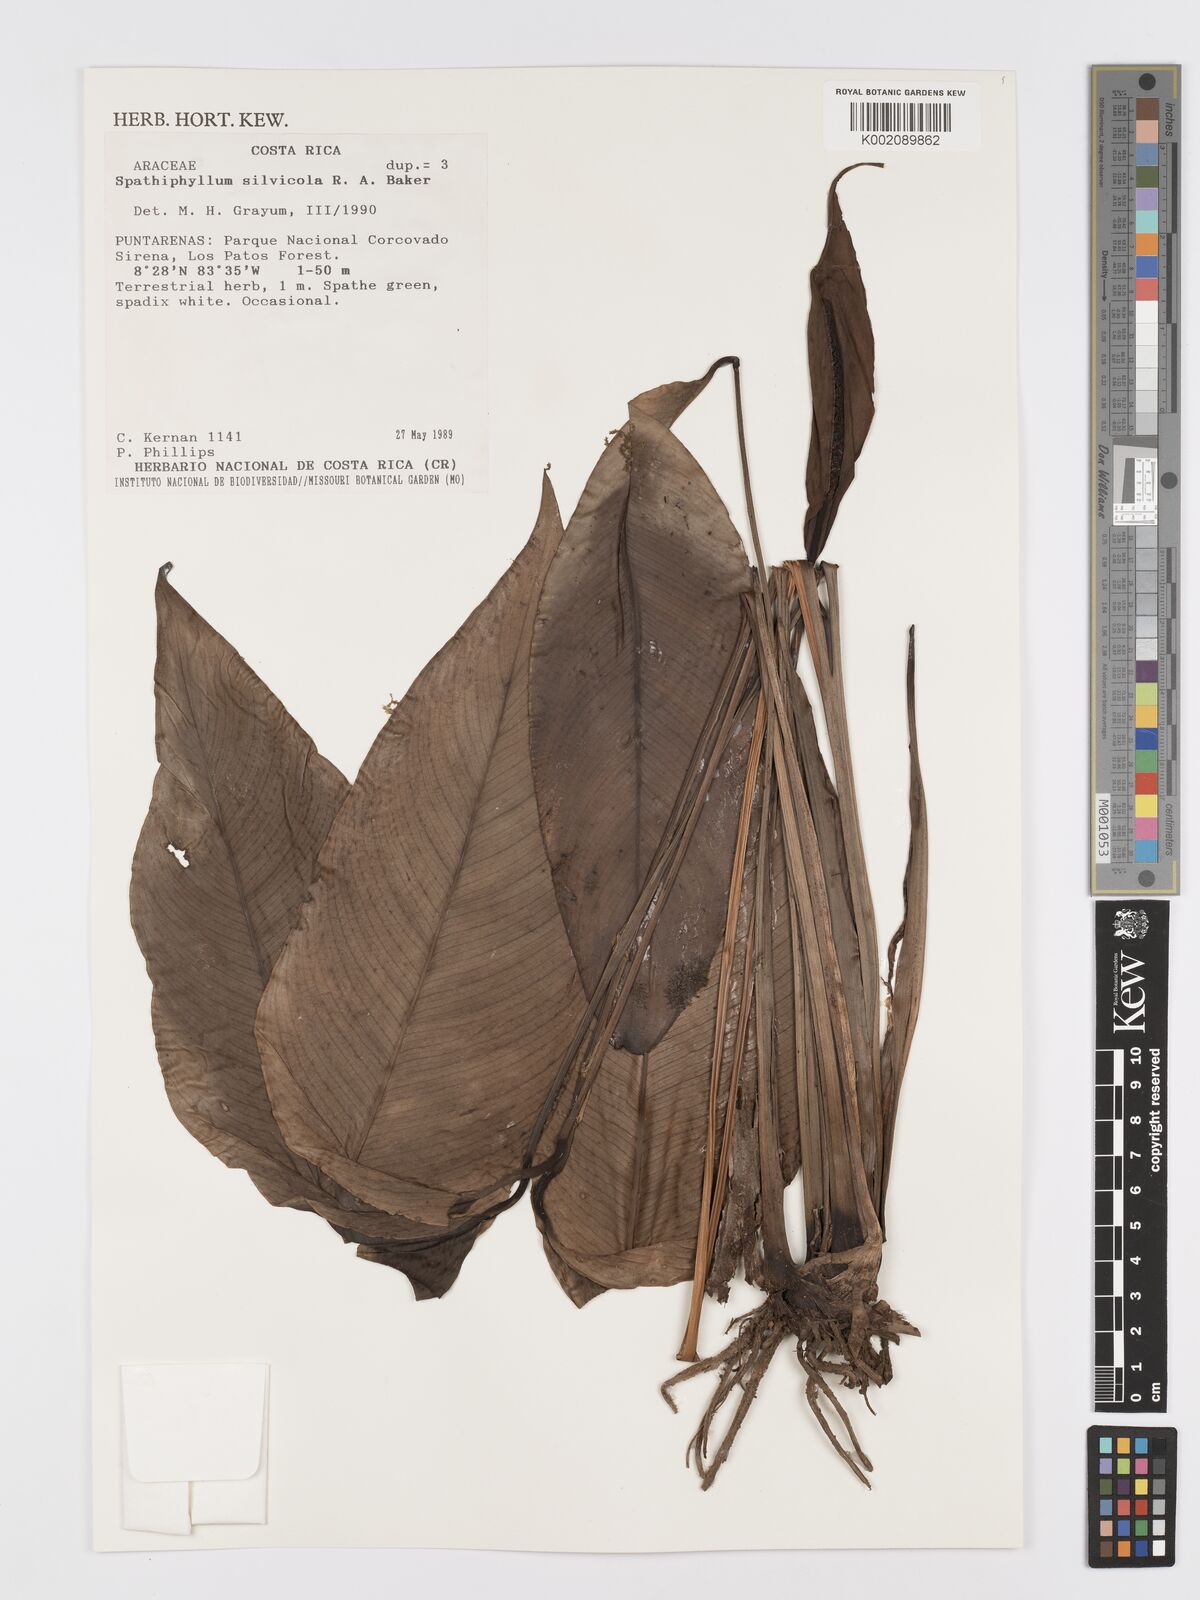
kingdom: Plantae
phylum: Tracheophyta
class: Liliopsida
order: Alismatales
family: Araceae
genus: Spathiphyllum
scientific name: Spathiphyllum silvicola
